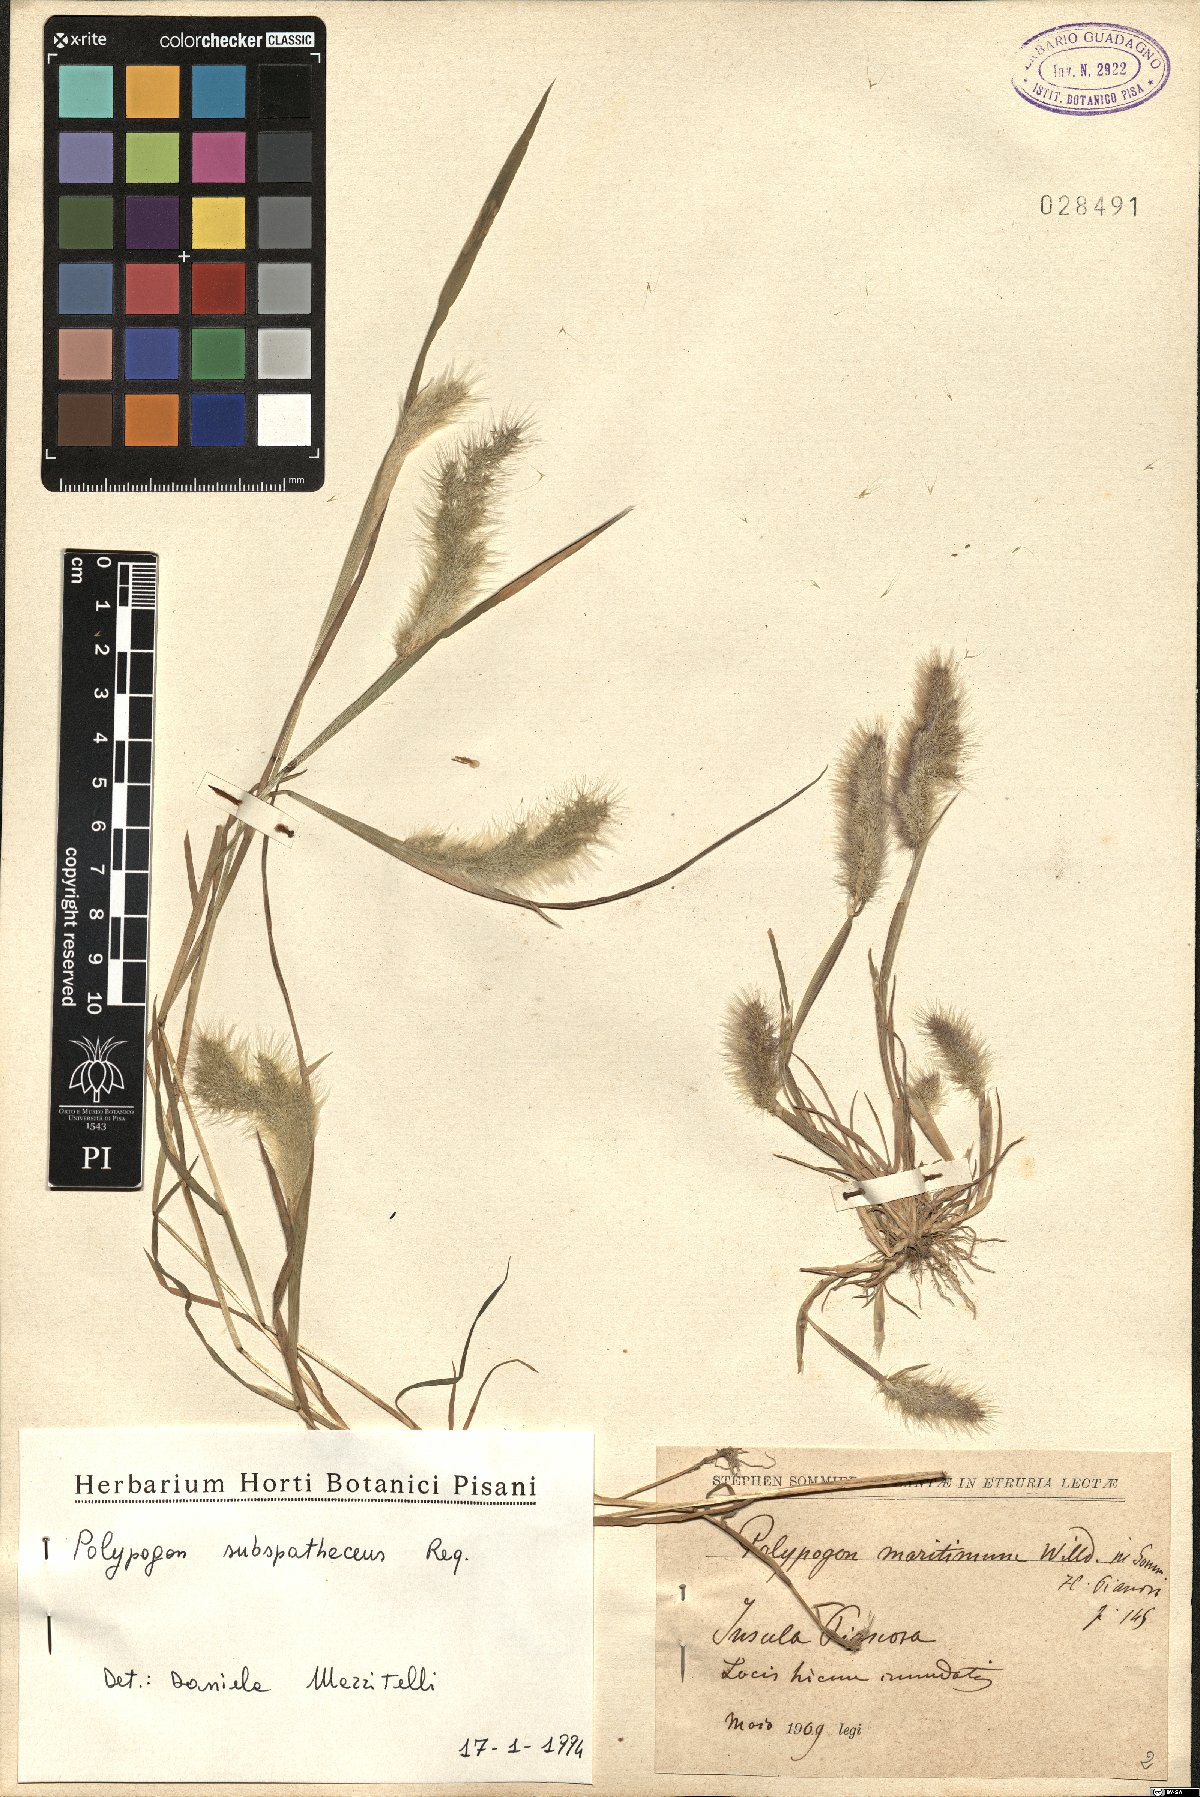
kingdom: Plantae
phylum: Tracheophyta
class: Liliopsida
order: Poales
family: Poaceae
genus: Polypogon
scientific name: Polypogon subspathaceus
